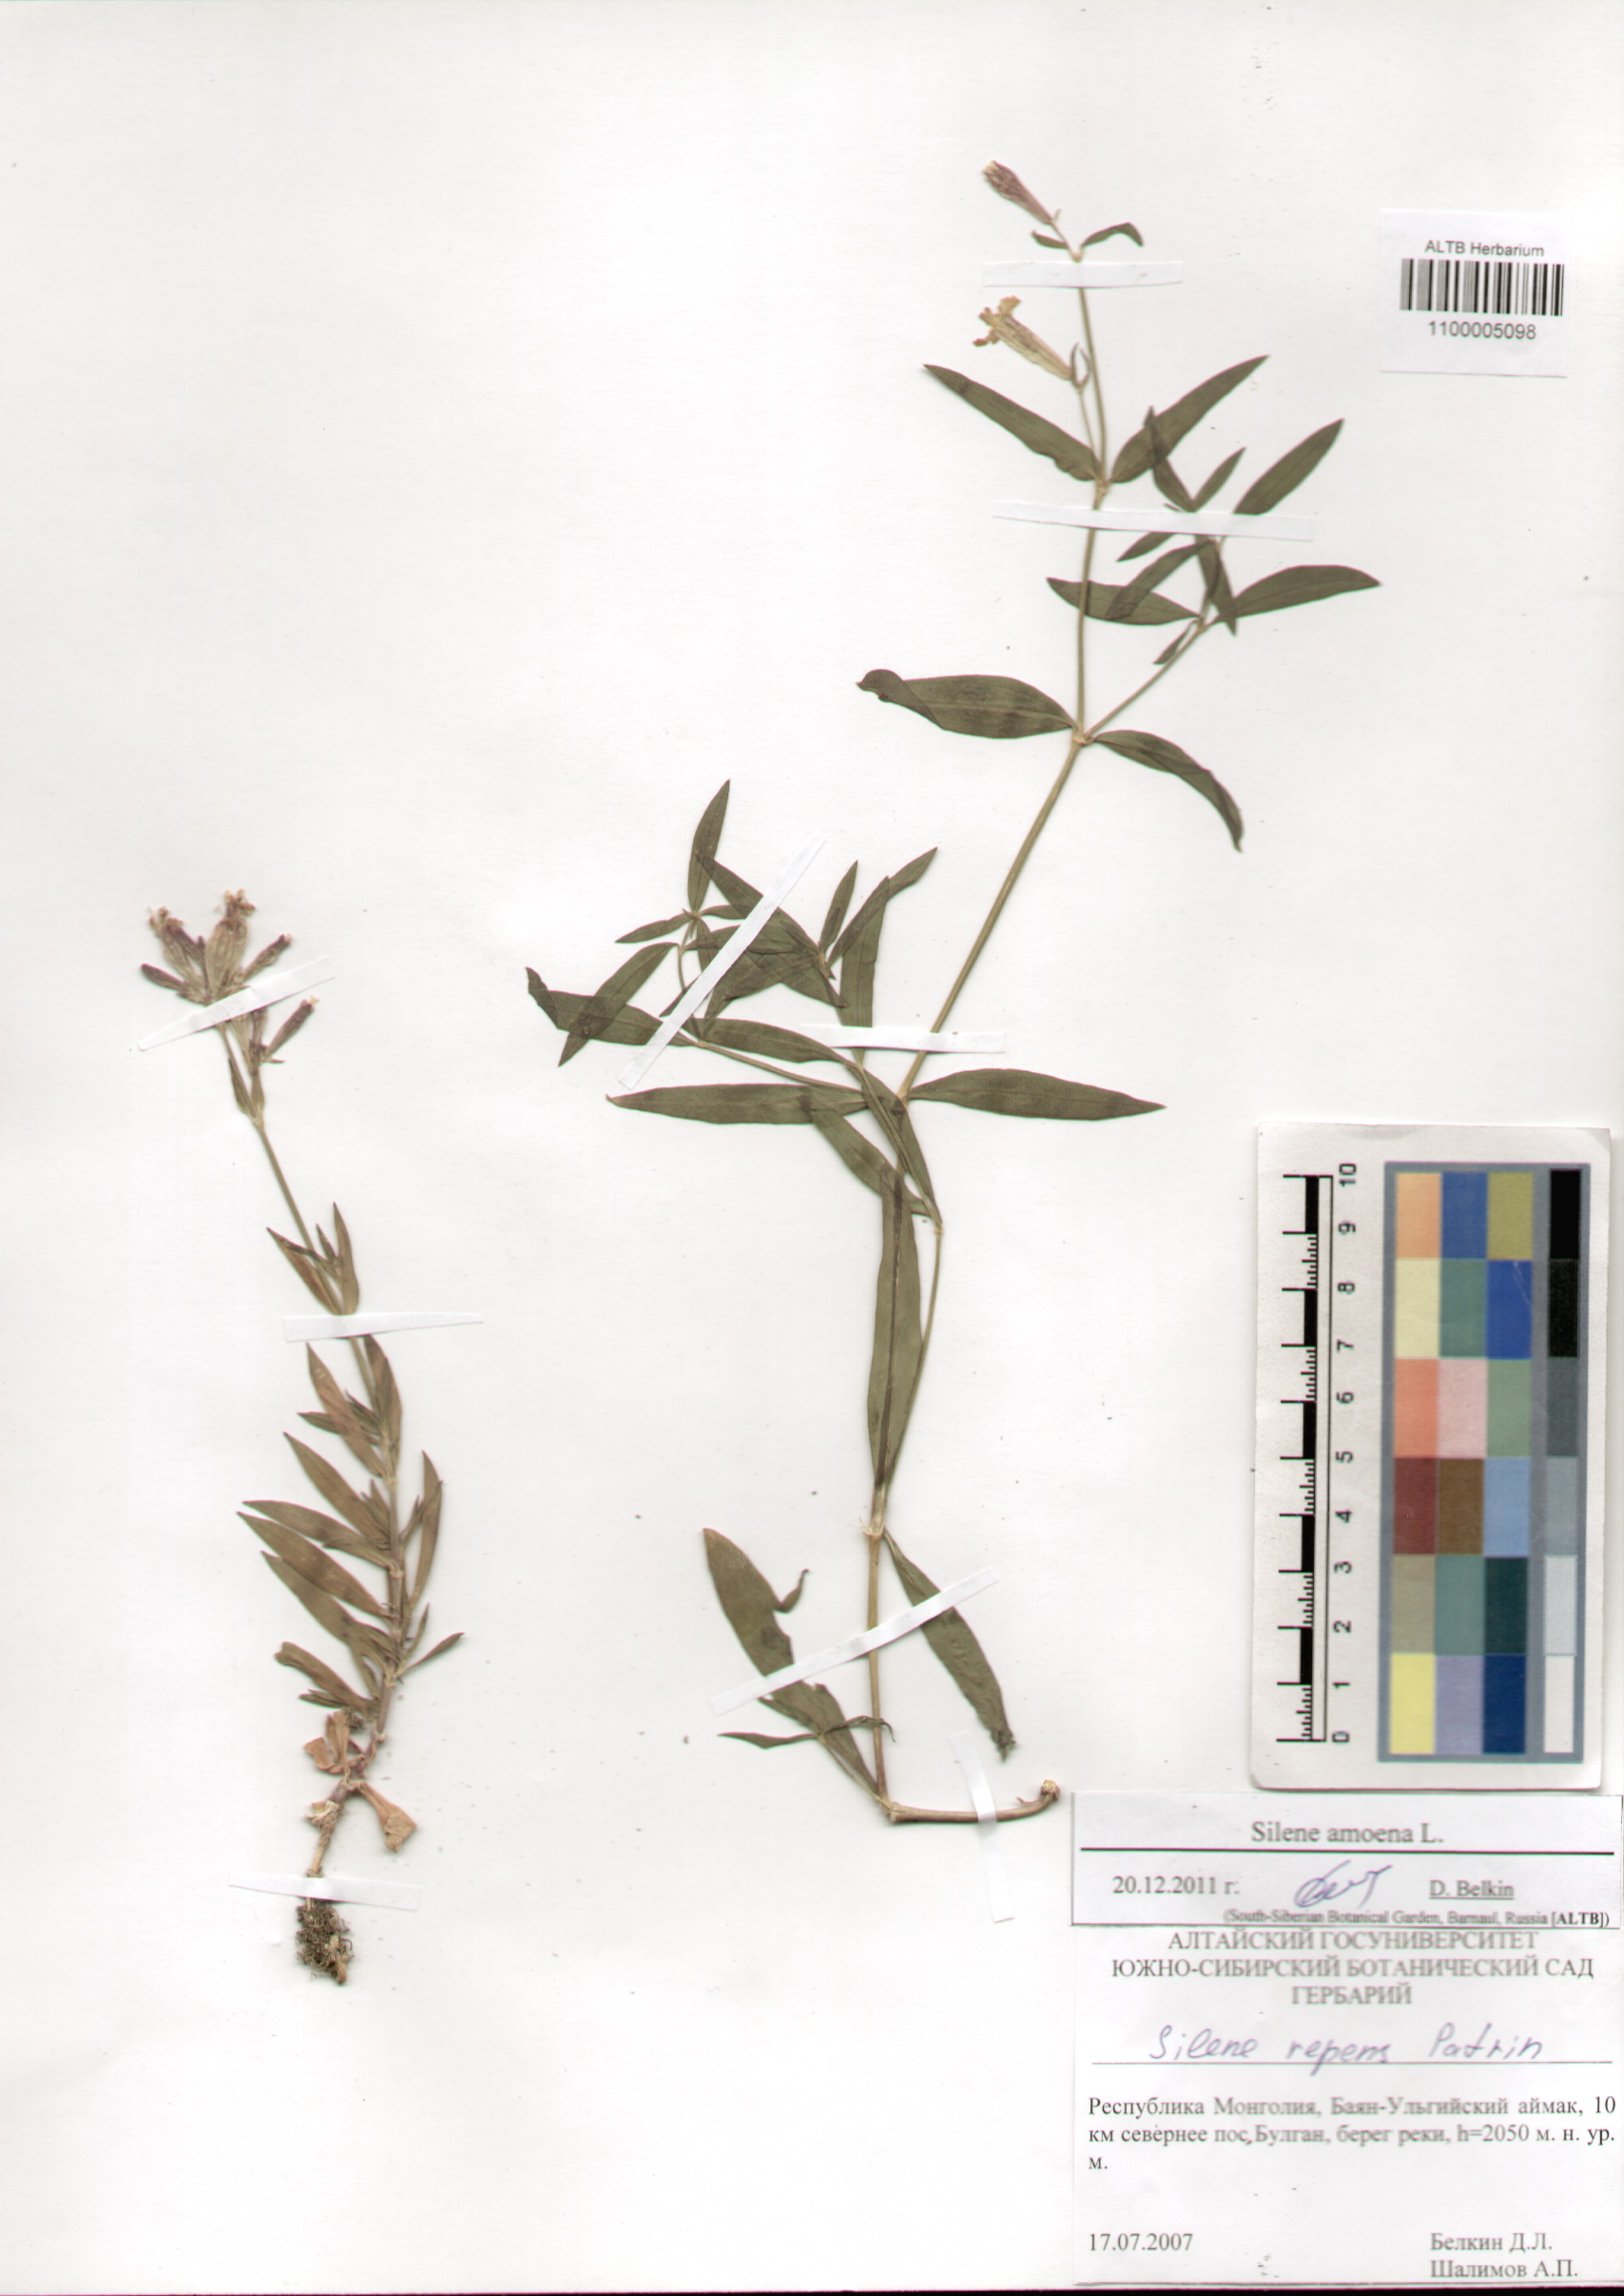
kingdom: Plantae
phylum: Tracheophyta
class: Magnoliopsida
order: Caryophyllales
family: Caryophyllaceae
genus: Silene
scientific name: Silene amoena
